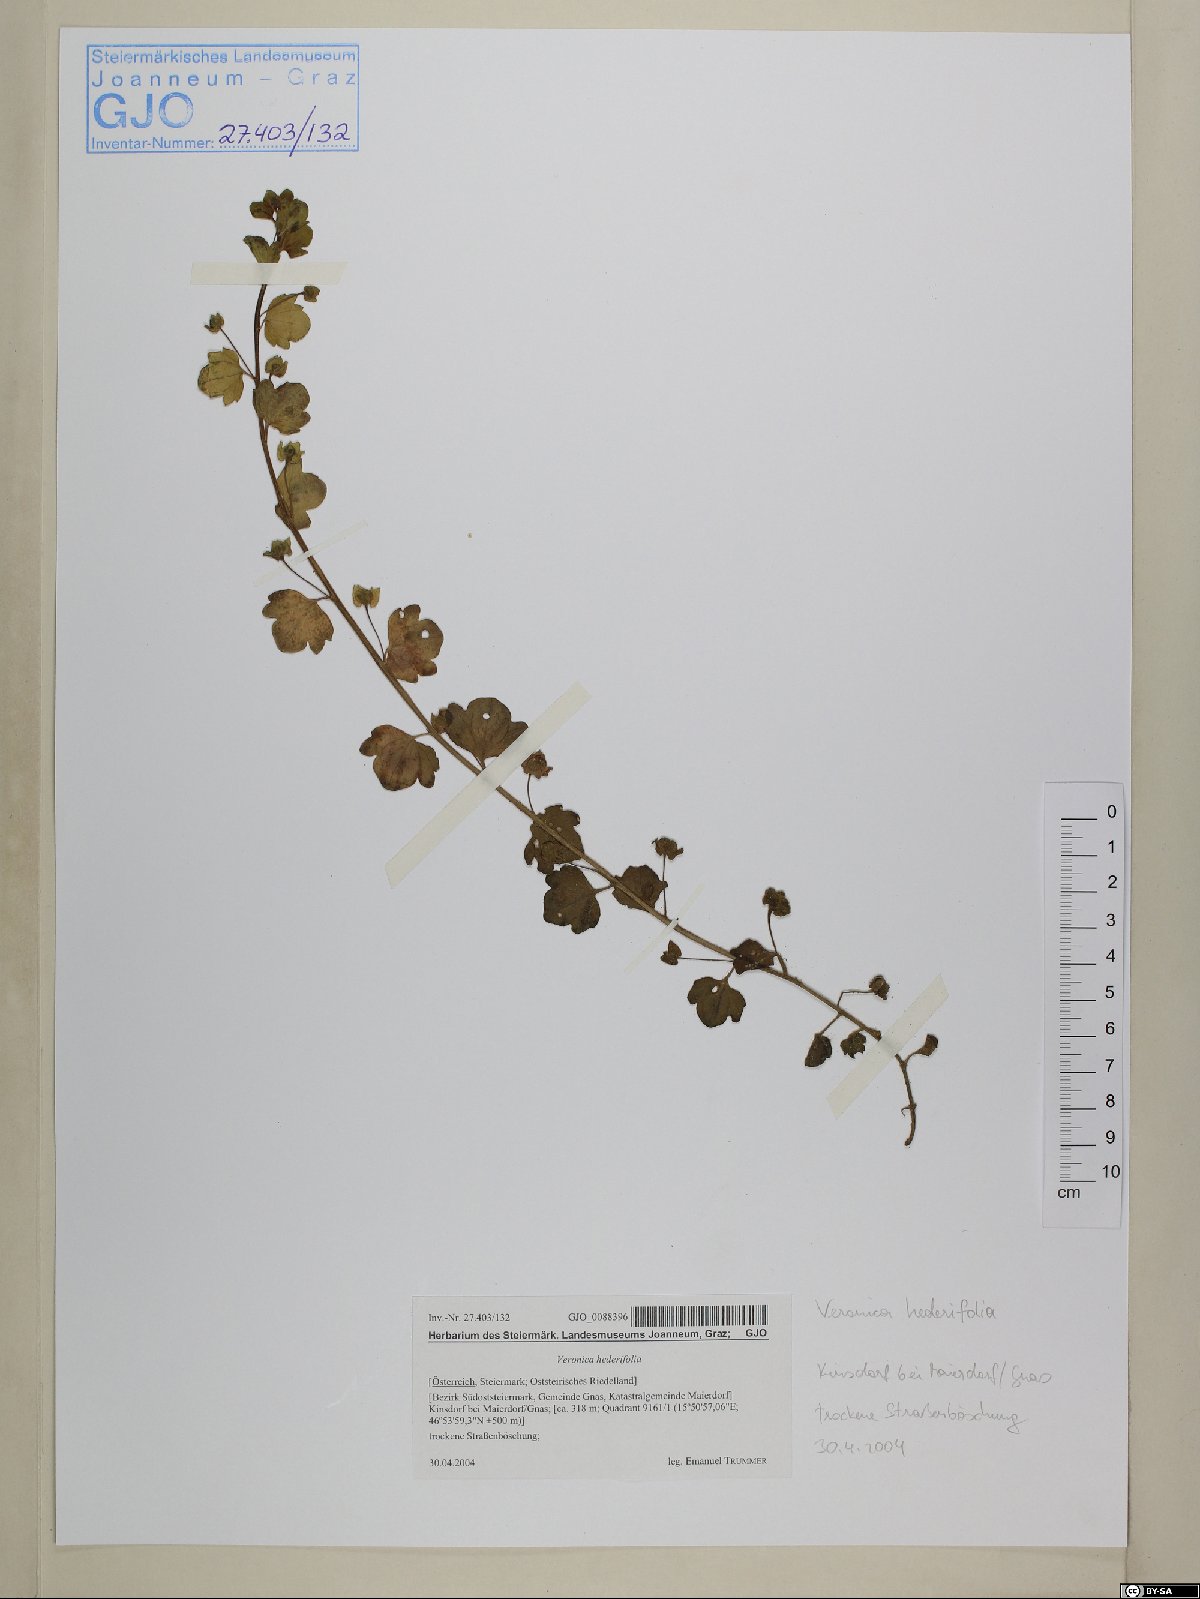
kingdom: Plantae
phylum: Tracheophyta
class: Magnoliopsida
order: Lamiales
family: Plantaginaceae
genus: Veronica
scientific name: Veronica hederifolia
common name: Ivy-leaved speedwell
